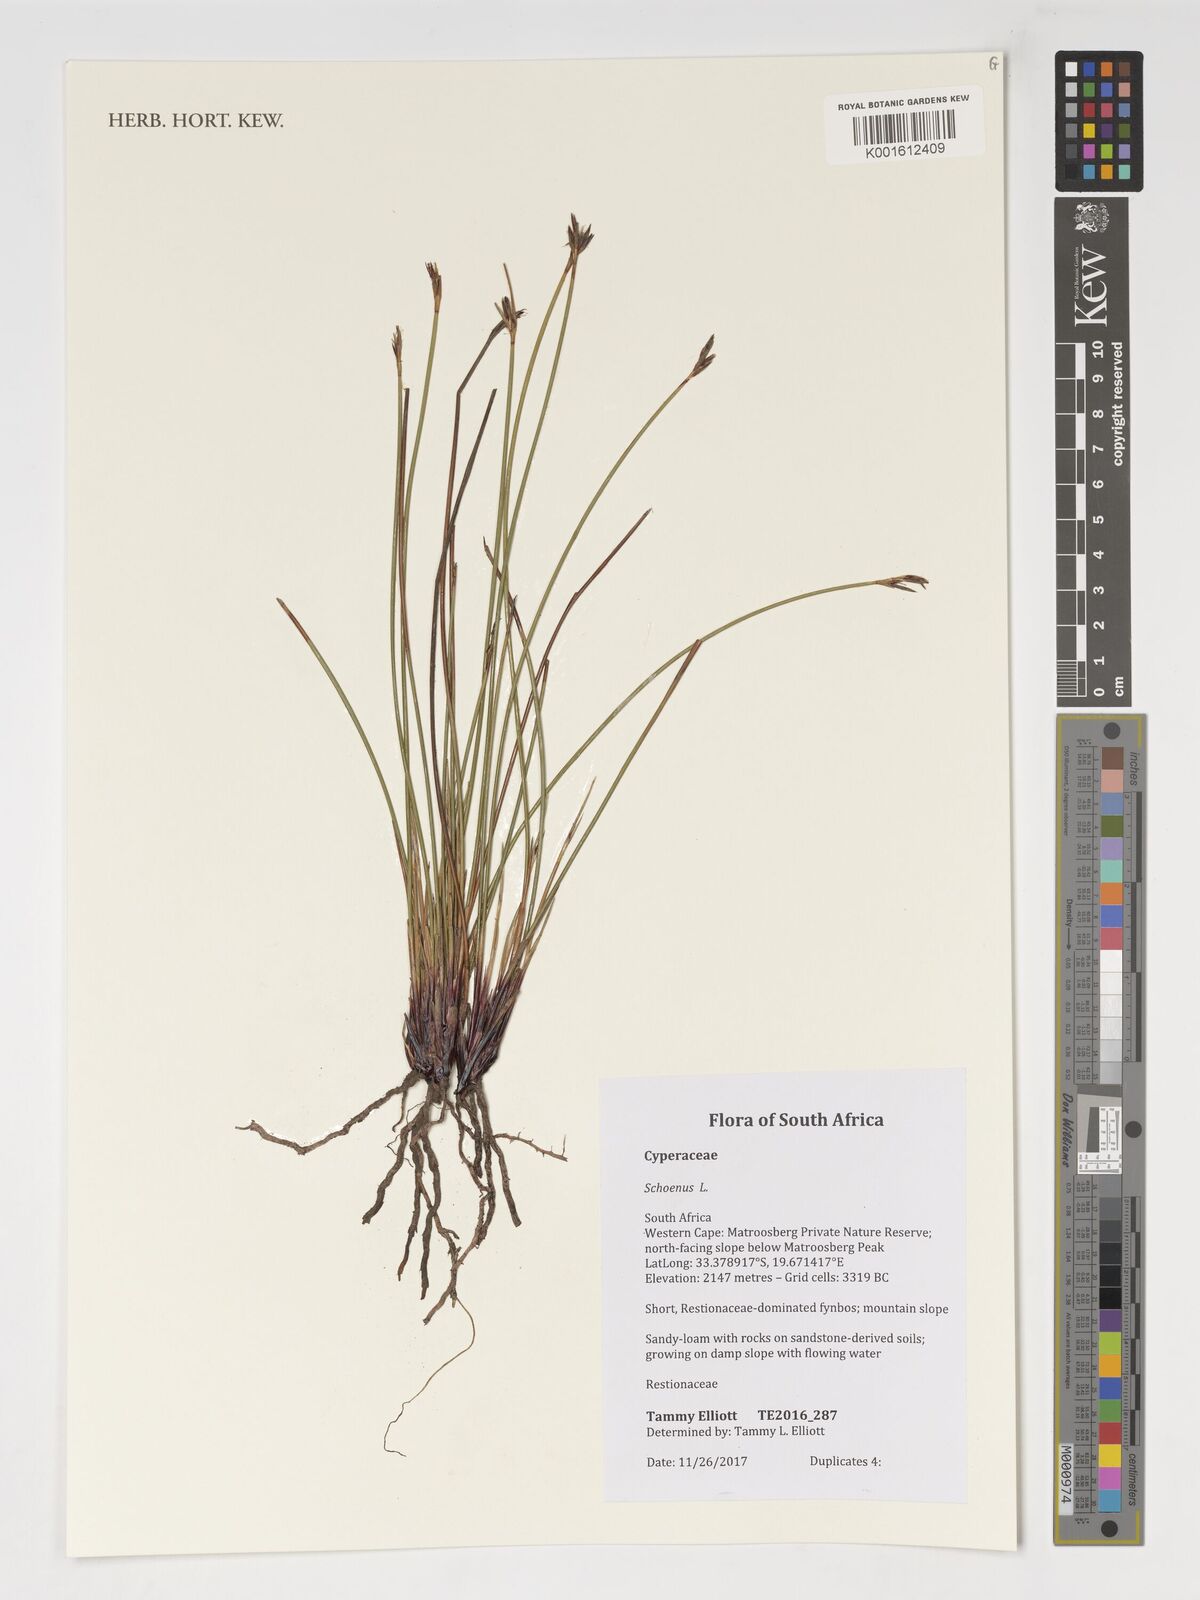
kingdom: Plantae
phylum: Tracheophyta
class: Liliopsida
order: Poales
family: Cyperaceae
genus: Schoenus
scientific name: Schoenus
